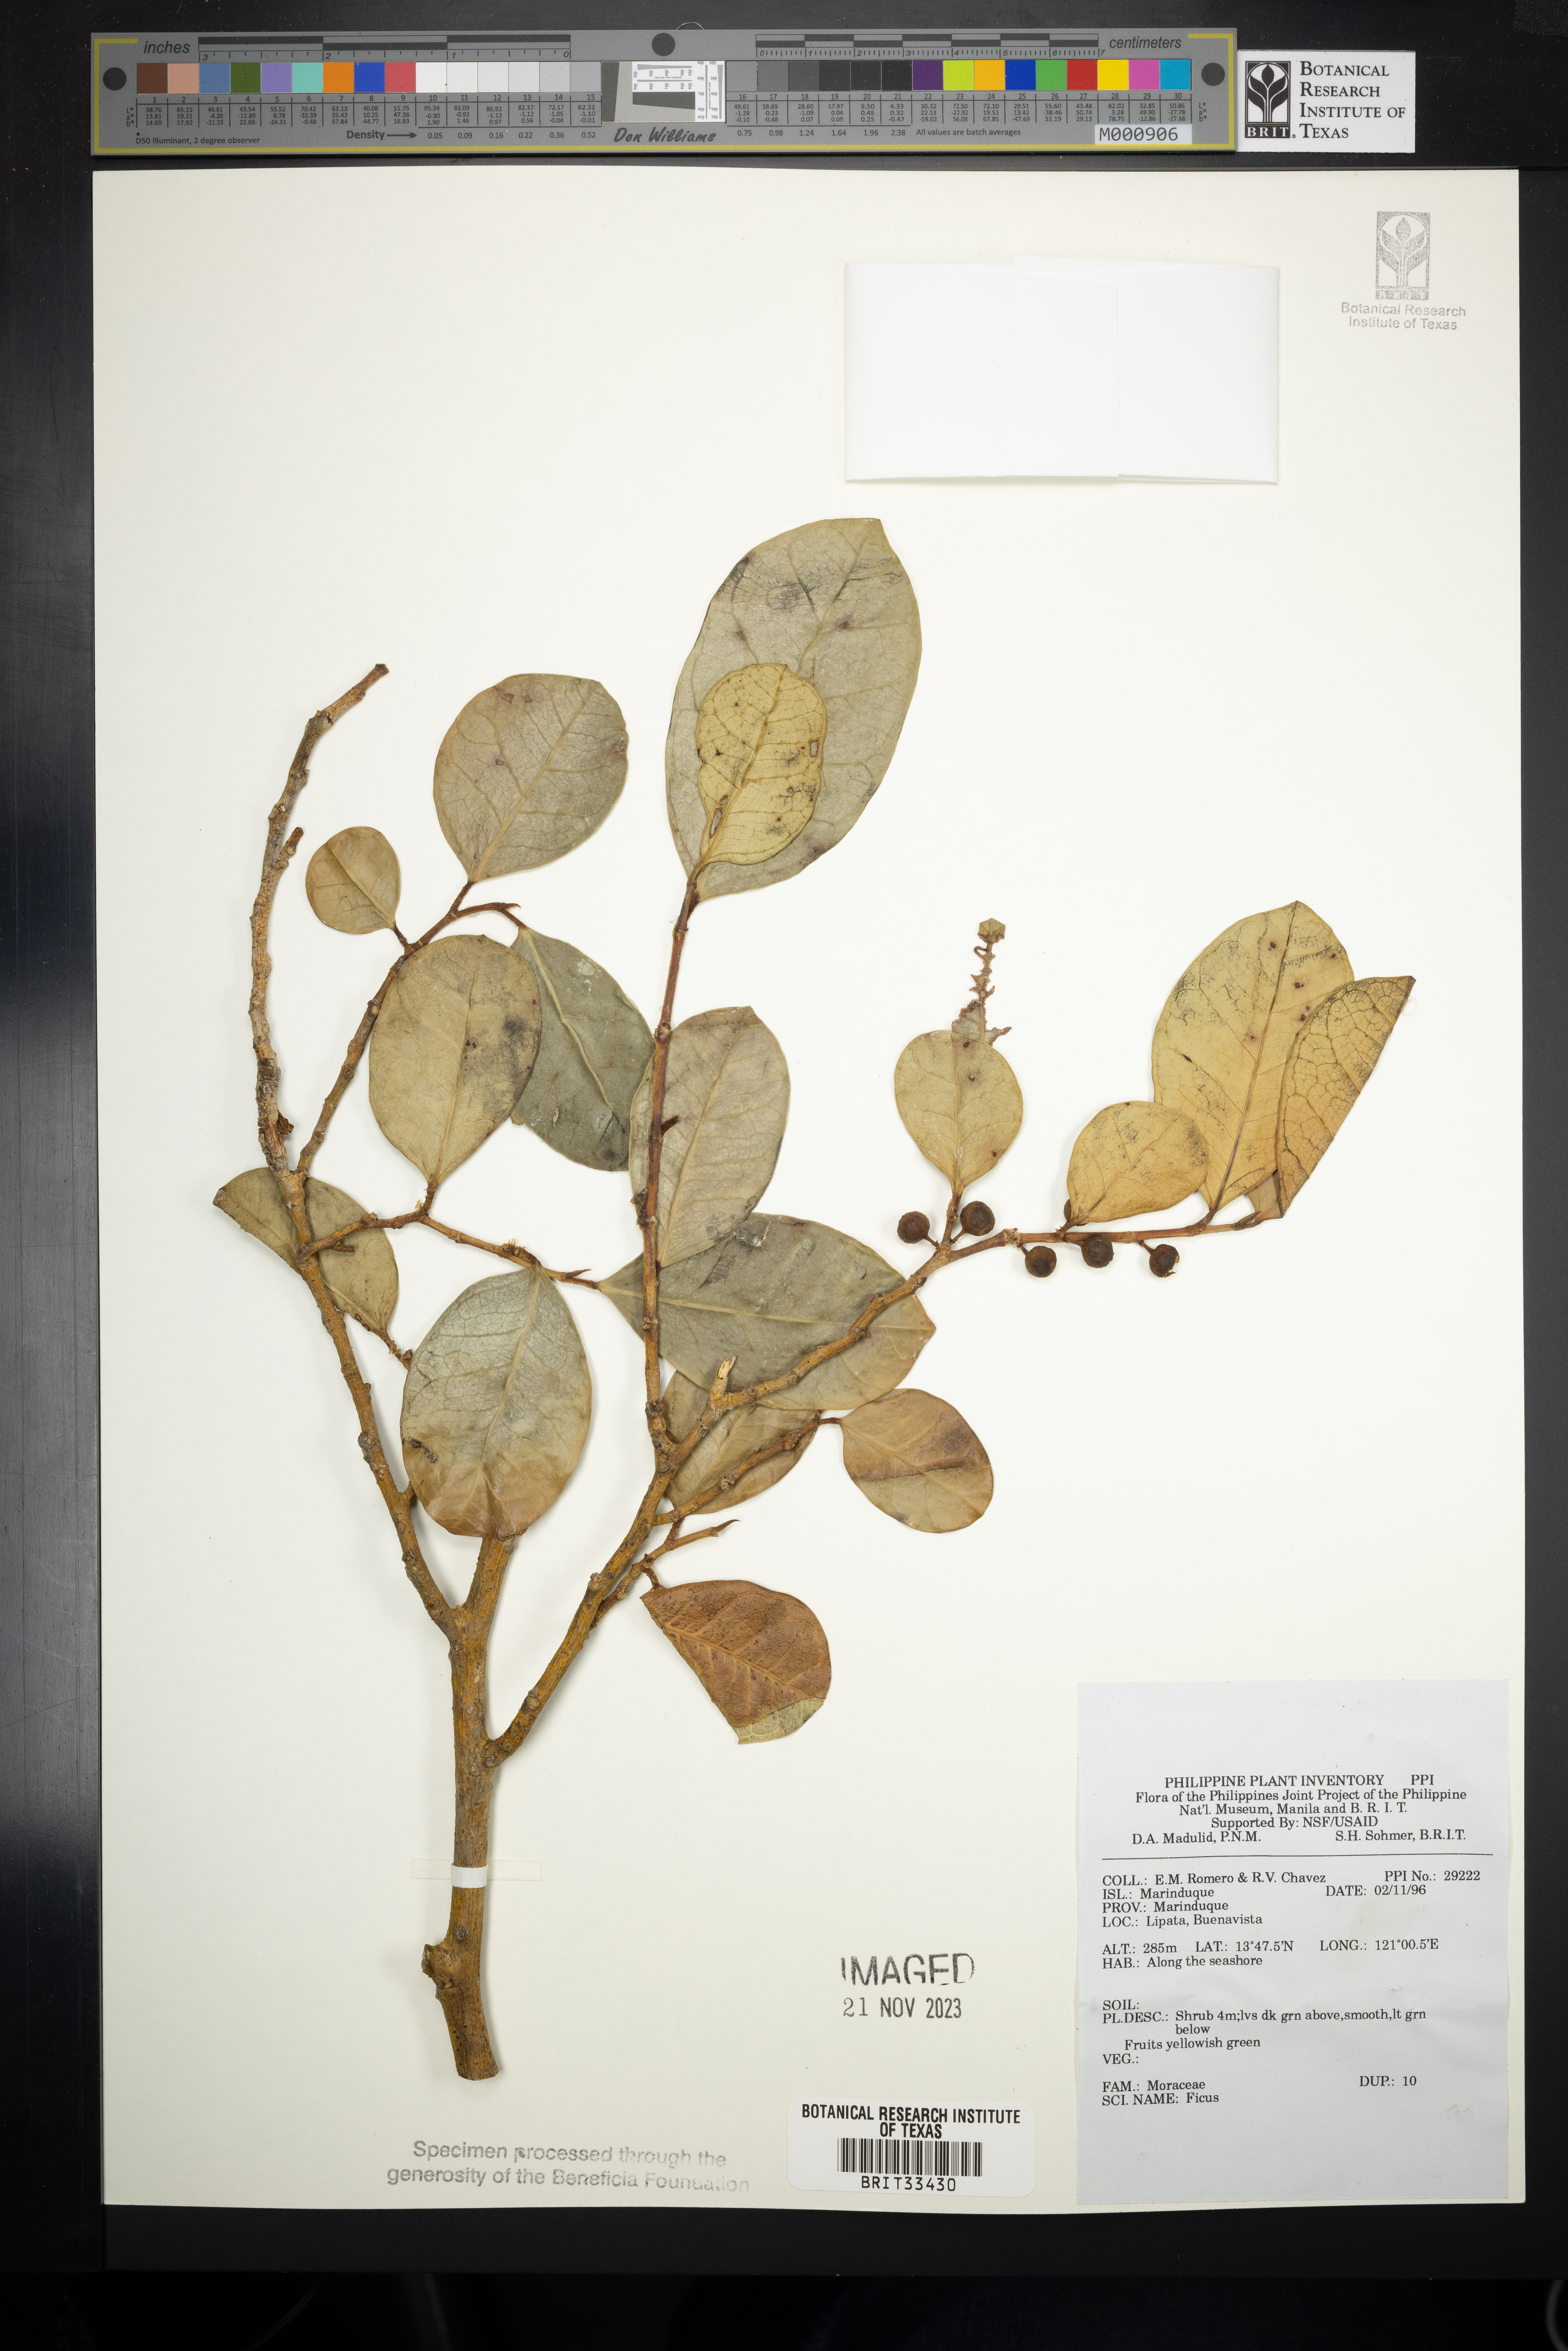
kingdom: Plantae
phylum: Tracheophyta
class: Magnoliopsida
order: Rosales
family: Moraceae
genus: Ficus
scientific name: Ficus
